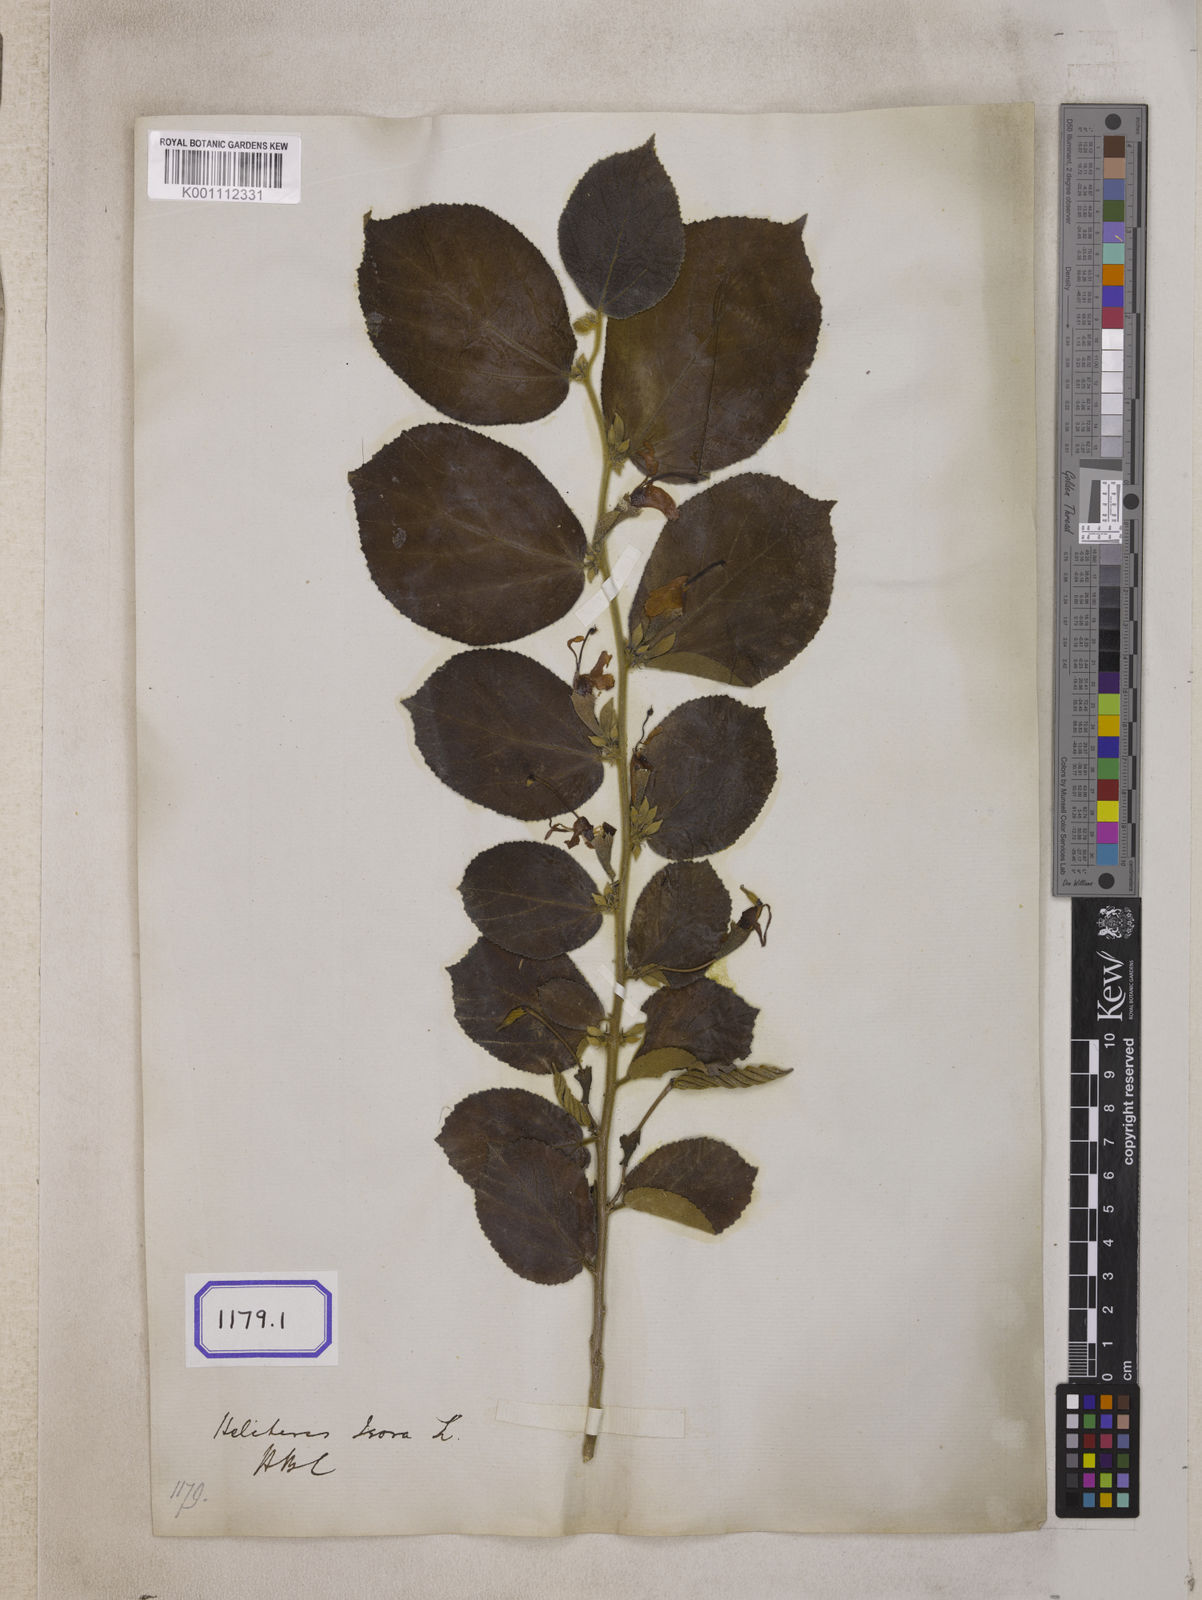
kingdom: Plantae
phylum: Tracheophyta
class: Magnoliopsida
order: Malvales
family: Malvaceae
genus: Helicteres
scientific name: Helicteres isora
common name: East indian screwtree
